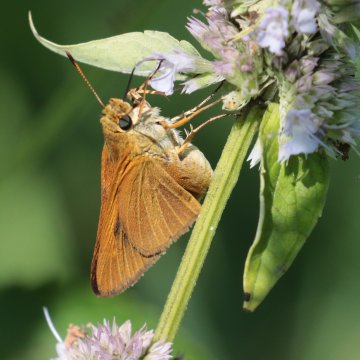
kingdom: Animalia
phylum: Arthropoda
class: Insecta
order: Lepidoptera
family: Hesperiidae
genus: Euphyes
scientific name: Euphyes dion
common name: Dion Skipper
